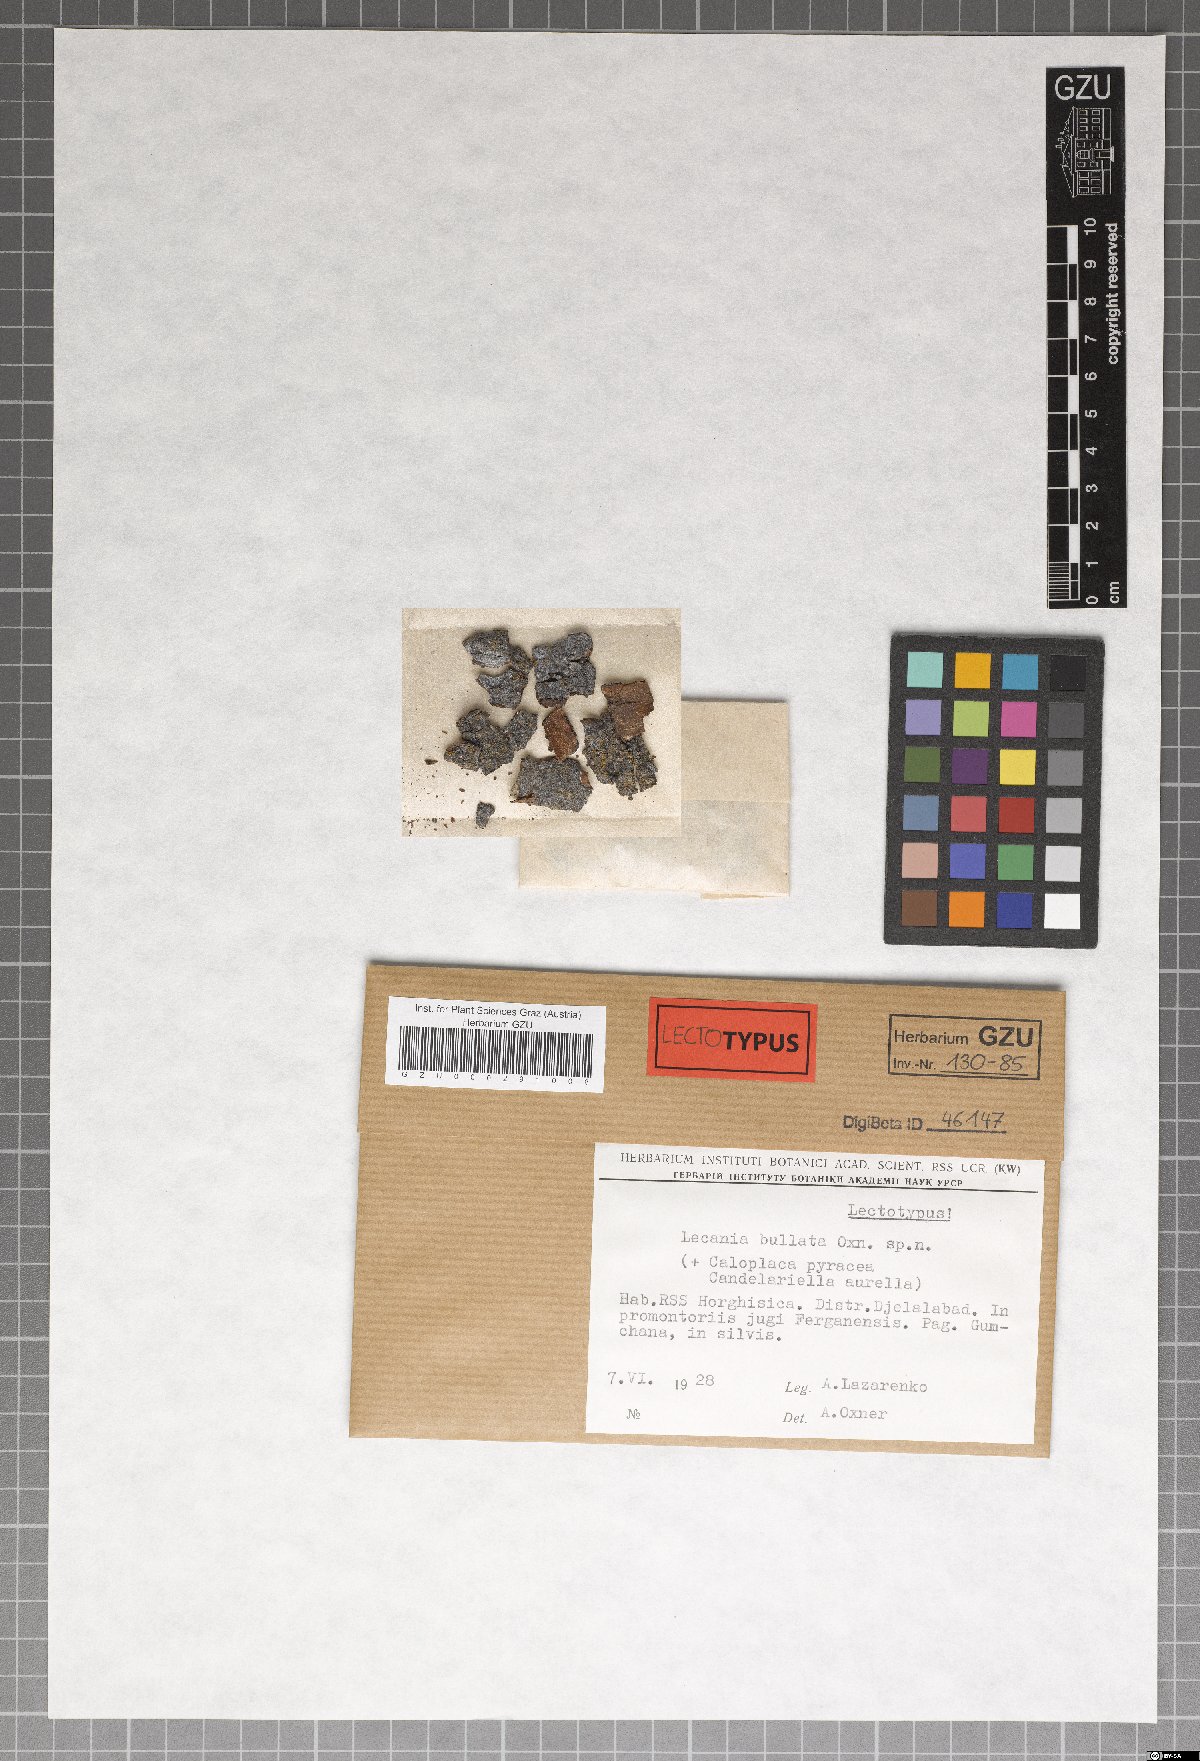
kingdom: Fungi
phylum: Ascomycota
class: Lecanoromycetes
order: Lecanorales
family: Ramalinaceae
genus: Lecania
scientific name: Lecania
